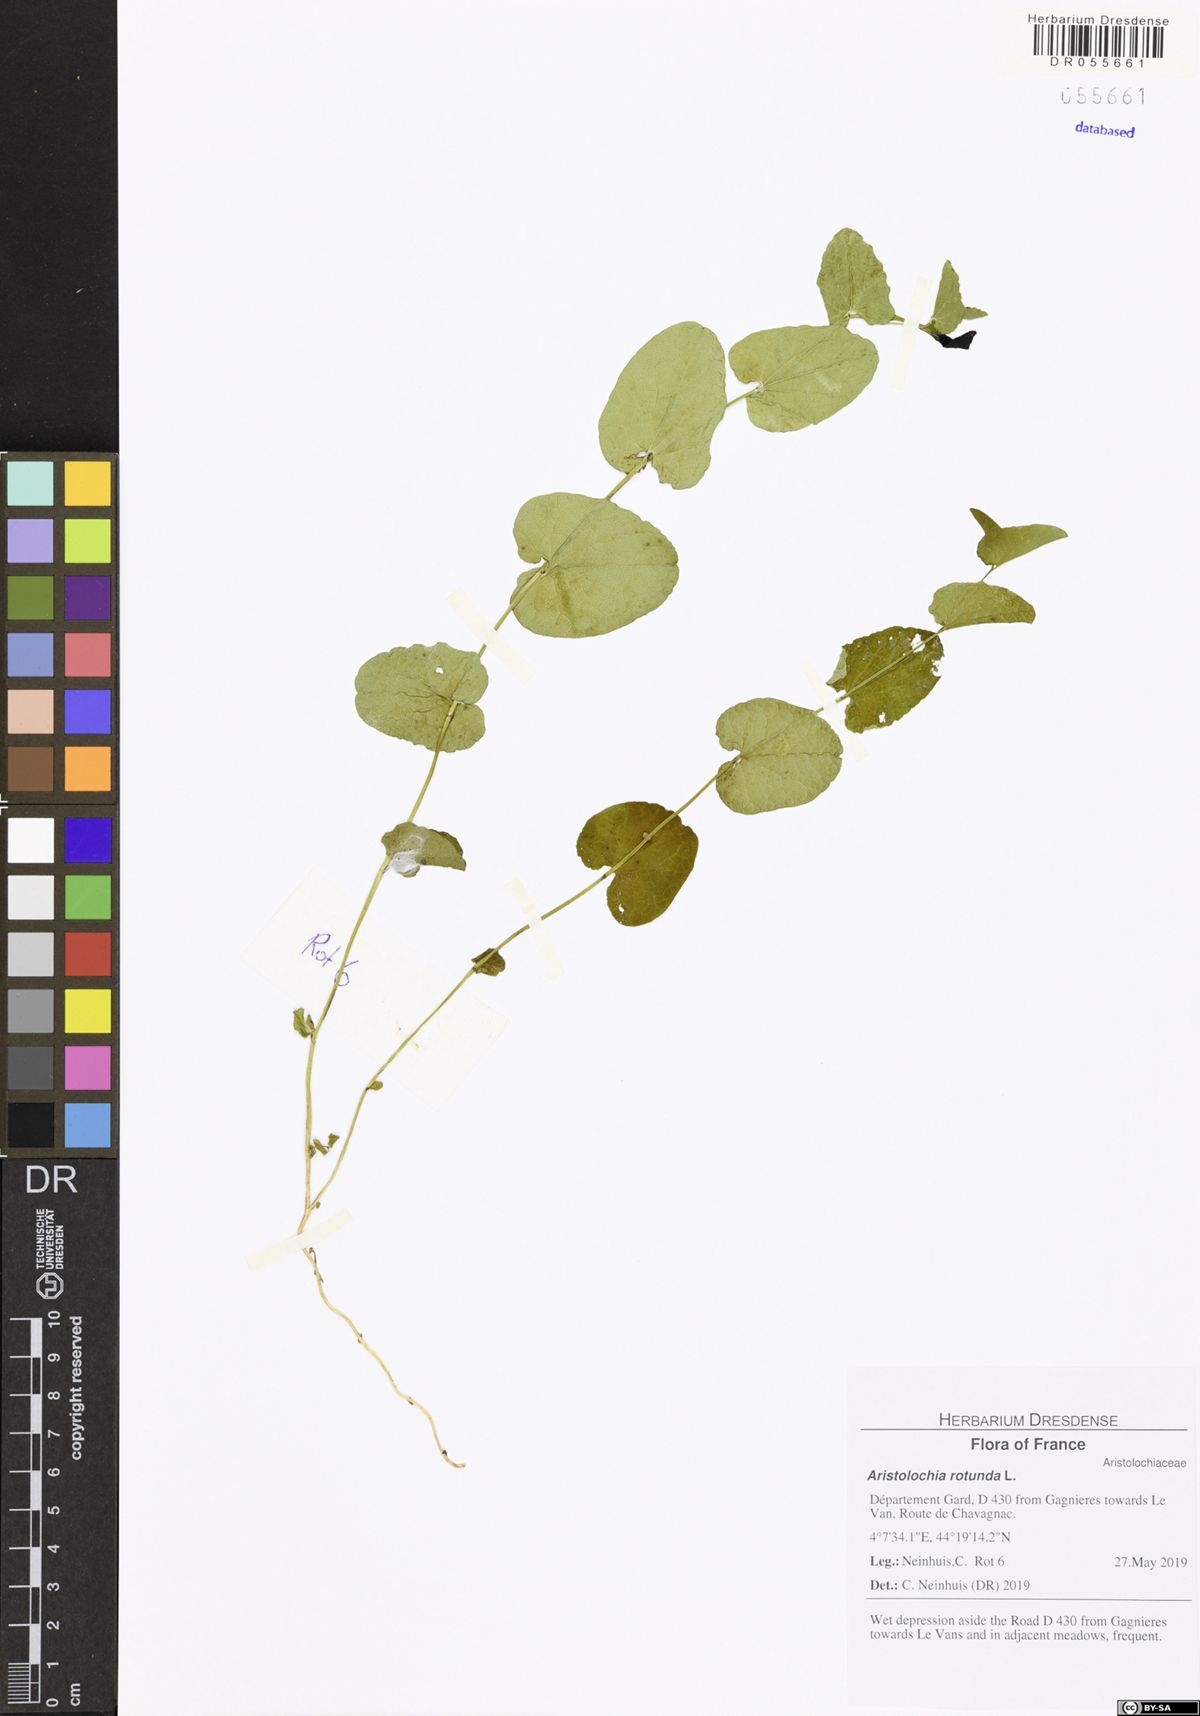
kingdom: Plantae
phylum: Tracheophyta
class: Magnoliopsida
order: Piperales
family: Aristolochiaceae
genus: Aristolochia
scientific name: Aristolochia rotunda
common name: Smearwort
